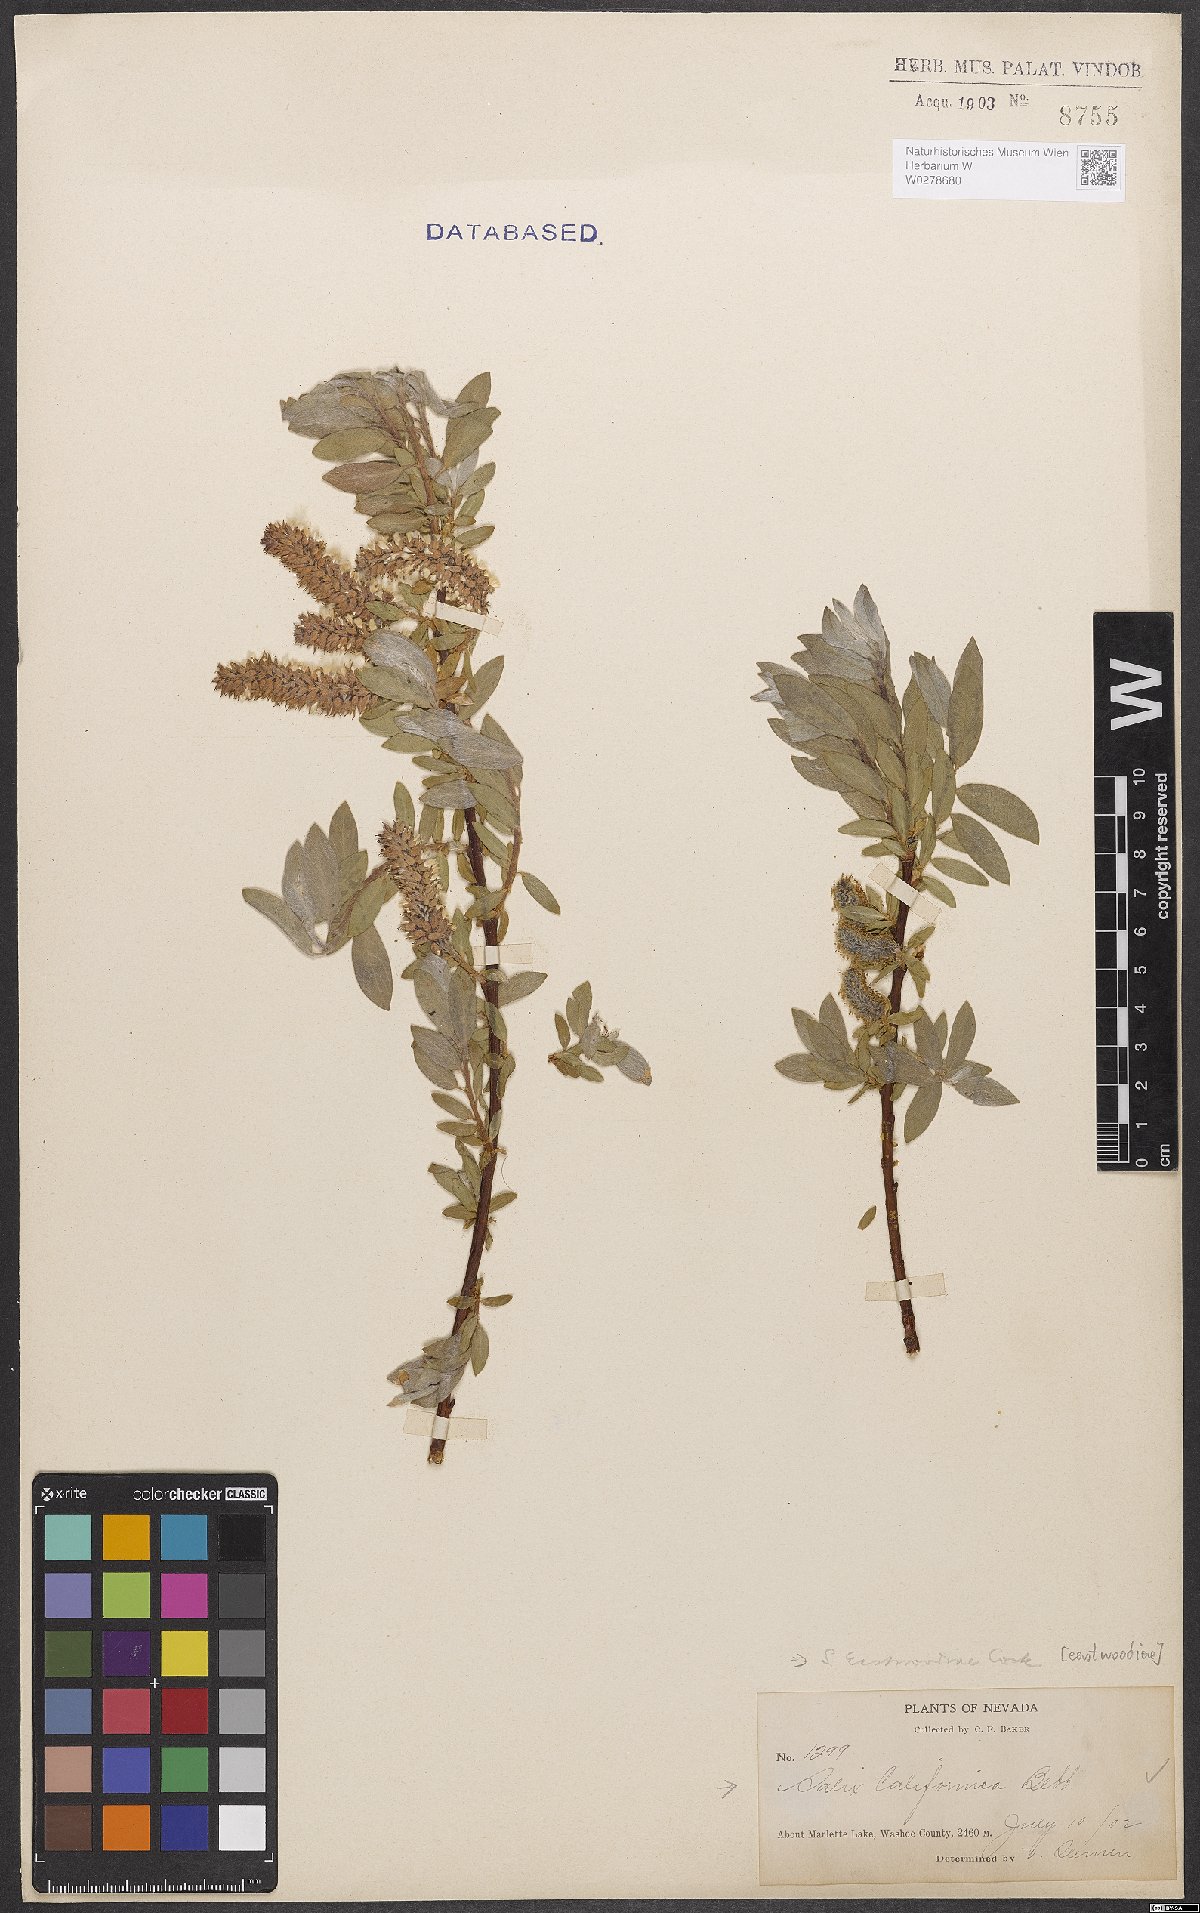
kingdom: Plantae
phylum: Tracheophyta
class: Magnoliopsida
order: Malpighiales
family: Salicaceae
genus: Salix
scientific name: Salix eastwoodiae
